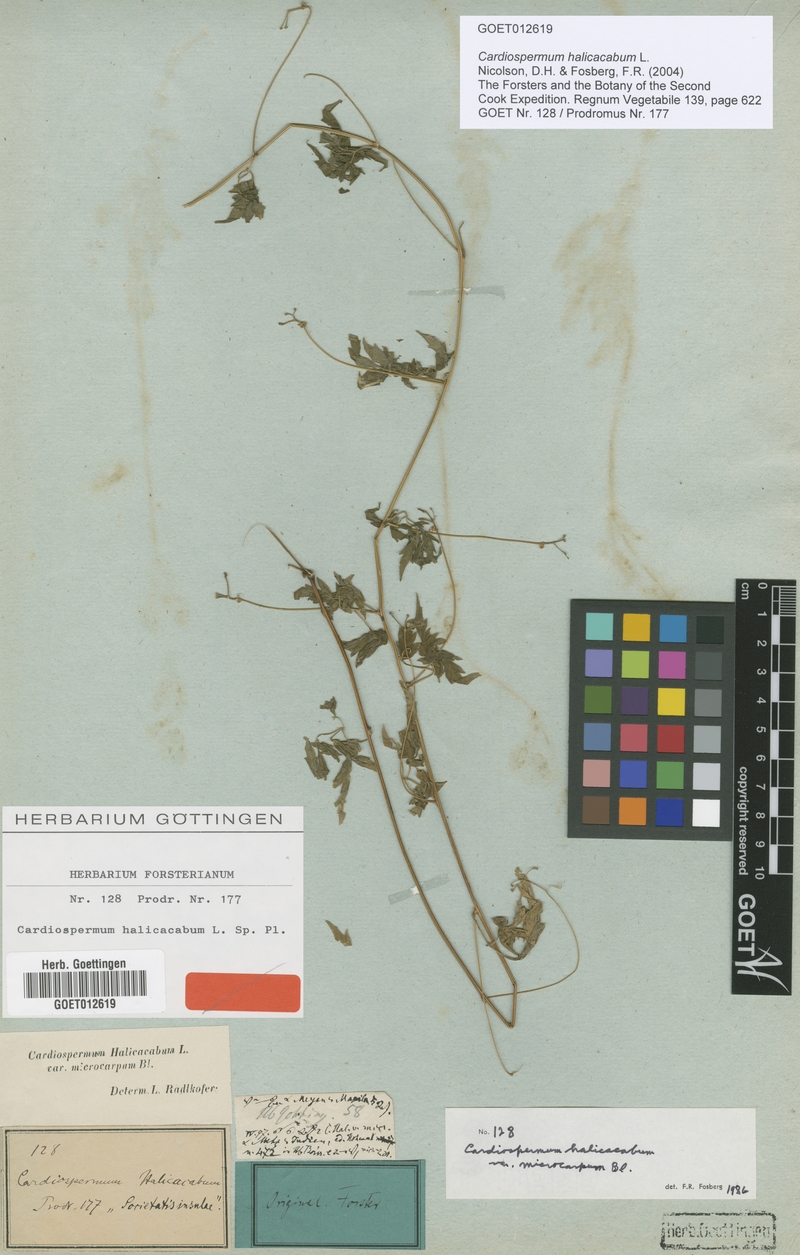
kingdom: Plantae
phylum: Tracheophyta
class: Magnoliopsida
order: Sapindales
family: Sapindaceae
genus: Cardiospermum
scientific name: Cardiospermum halicacabum
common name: Balloon vine
